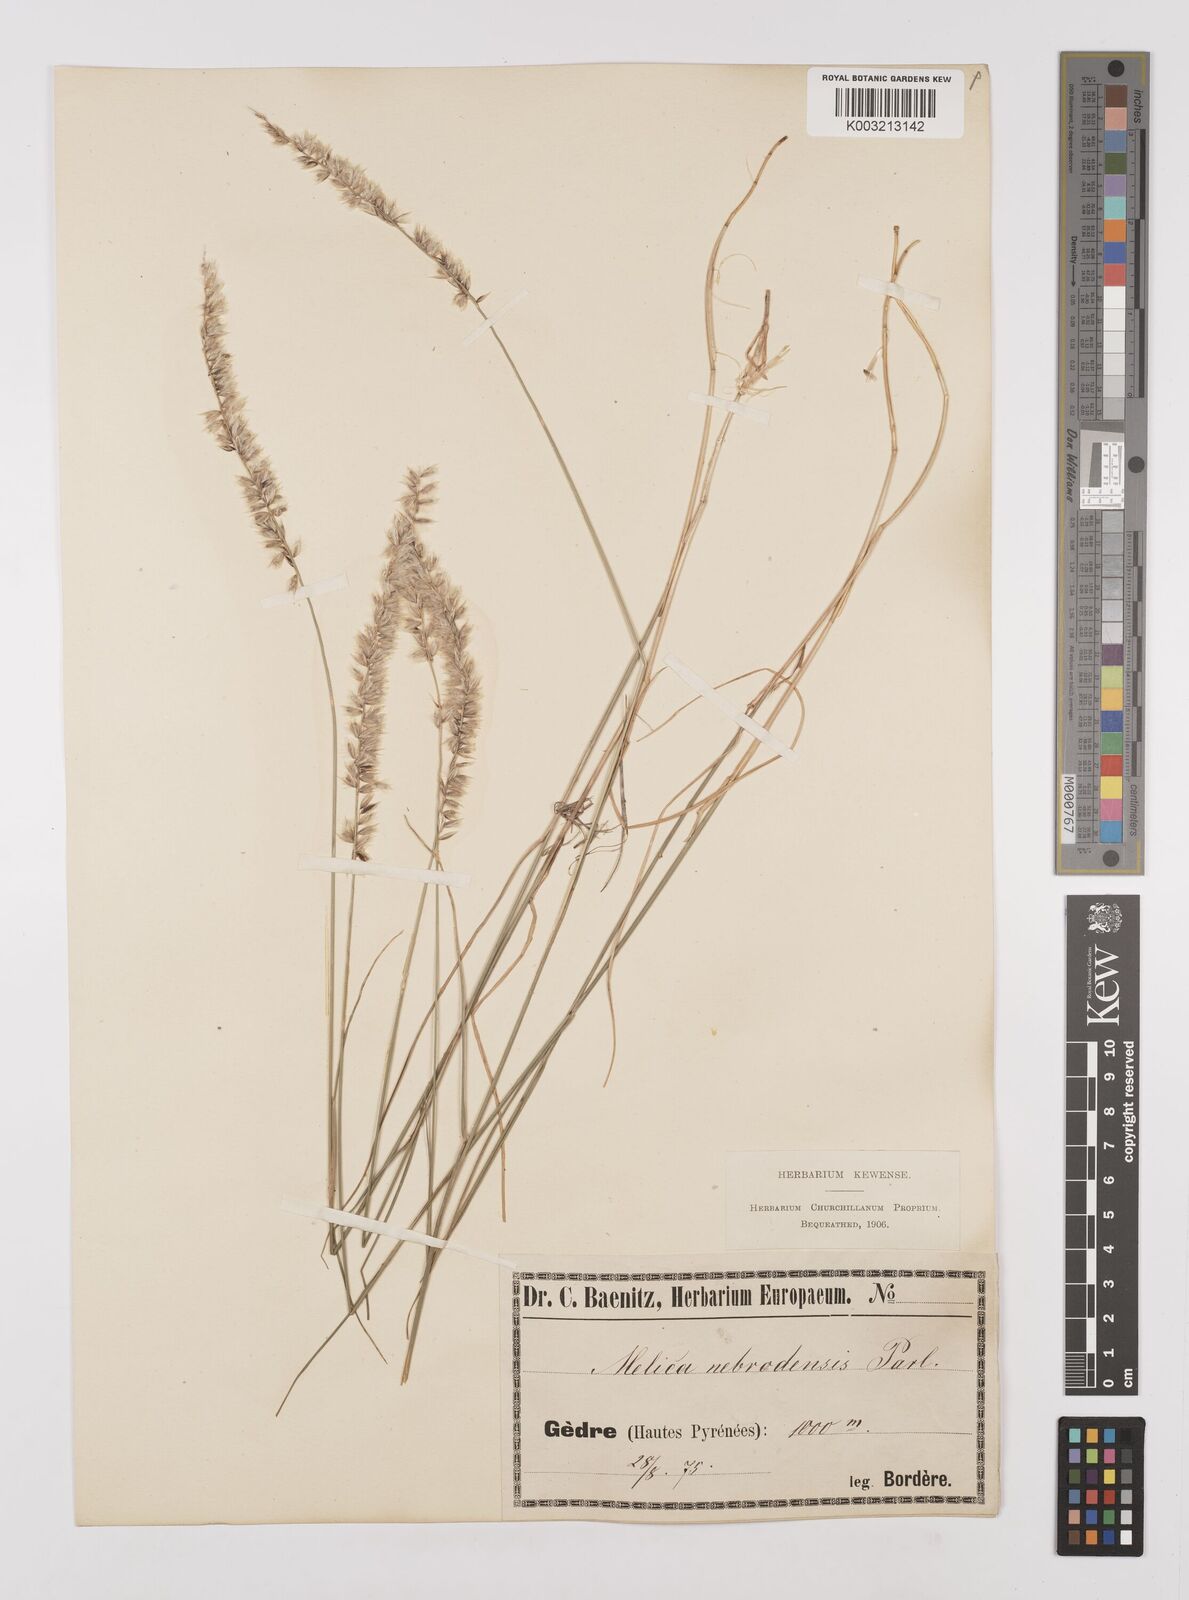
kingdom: Plantae
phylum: Tracheophyta
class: Liliopsida
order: Poales
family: Poaceae
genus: Melica
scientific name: Melica ciliata
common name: Hairy melicgrass
